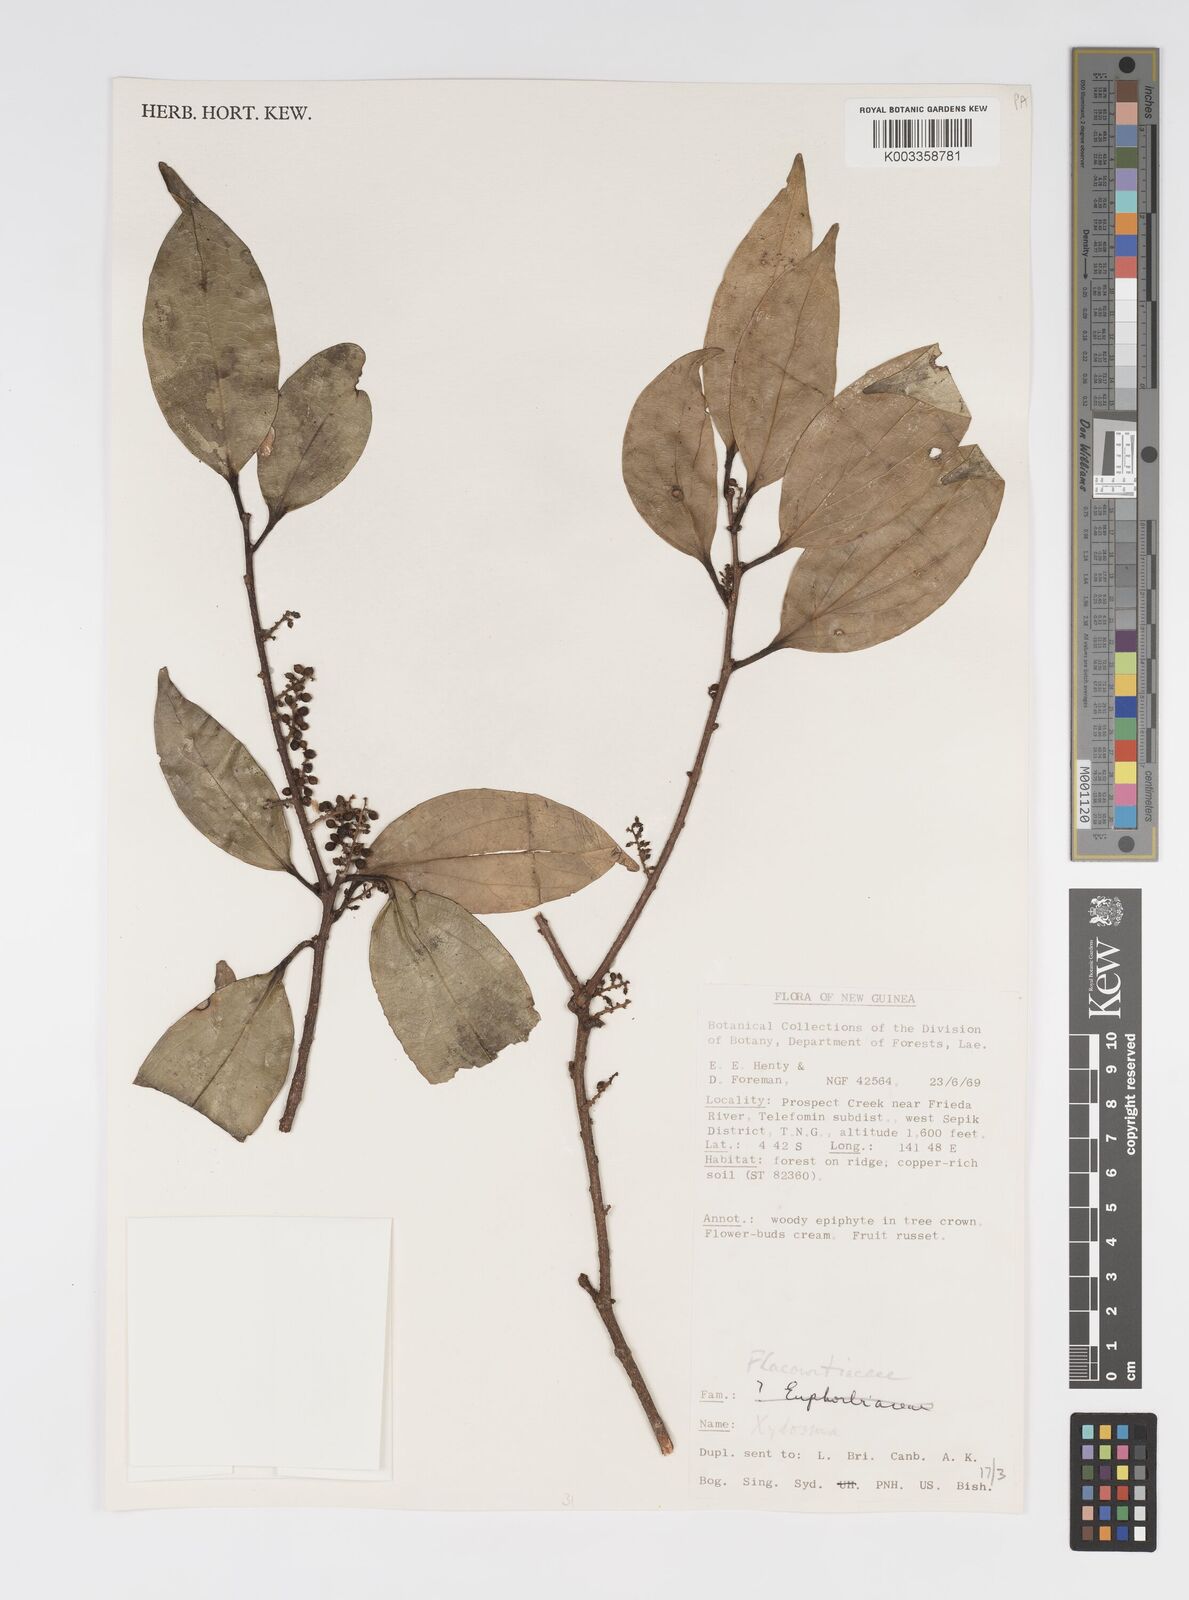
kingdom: Plantae
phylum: Tracheophyta
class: Magnoliopsida
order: Malpighiales
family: Salicaceae
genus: Xylosma
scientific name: Xylosma
